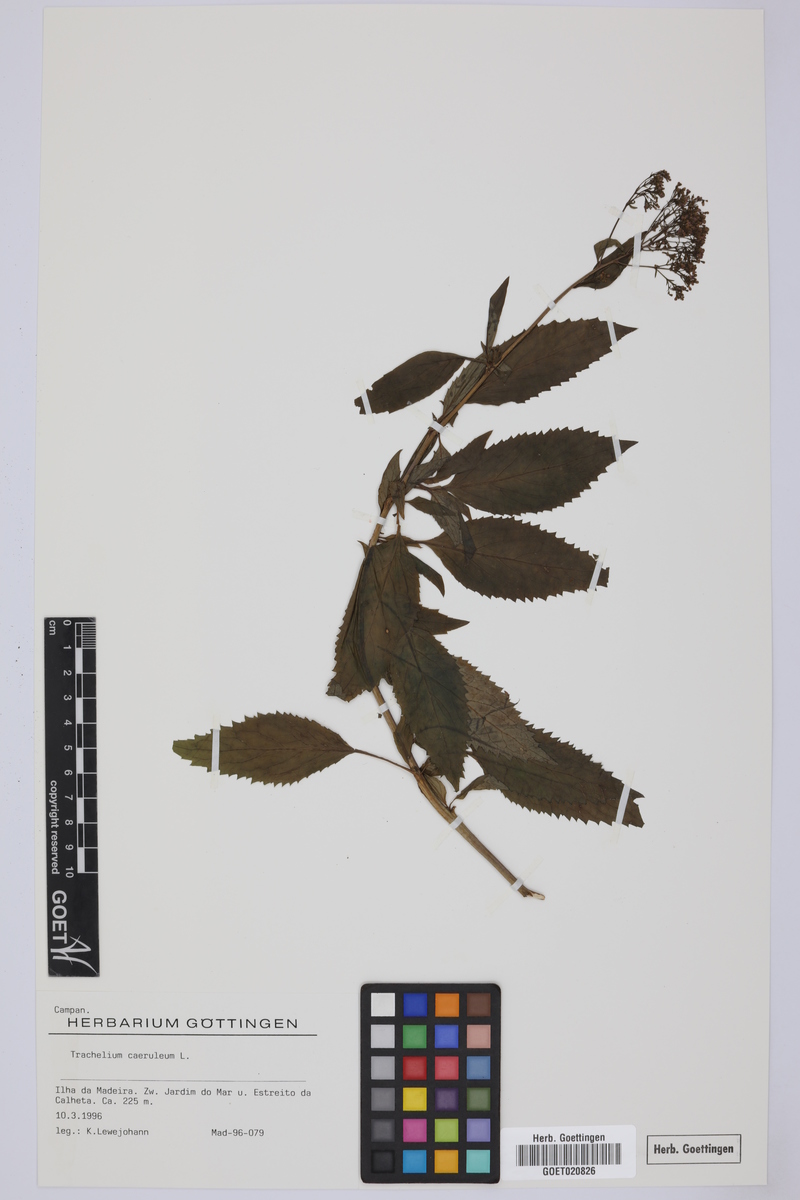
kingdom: Plantae
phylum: Tracheophyta
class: Magnoliopsida
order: Asterales
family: Campanulaceae
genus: Trachelium
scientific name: Trachelium caeruleum
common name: Throatwort
